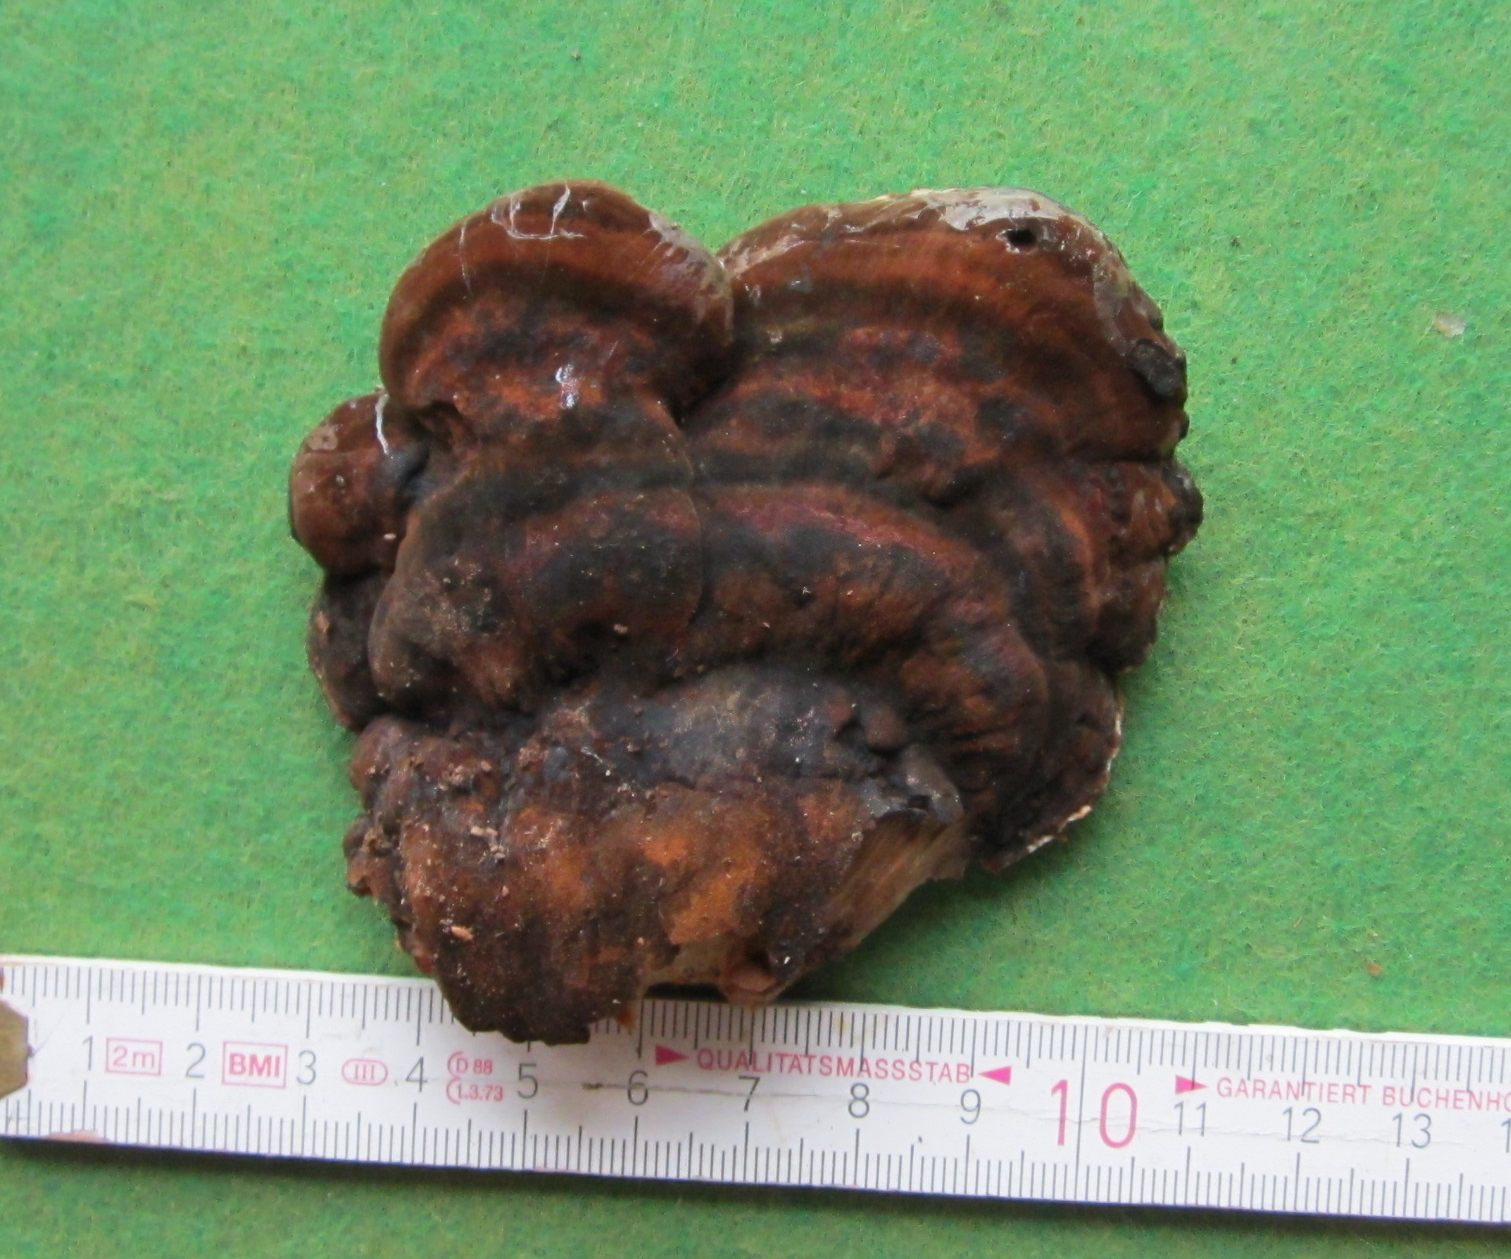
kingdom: Fungi
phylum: Basidiomycota
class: Agaricomycetes
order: Polyporales
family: Ischnodermataceae
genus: Ischnoderma
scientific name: Ischnoderma resinosum
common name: løv-tjæreporesvamp
